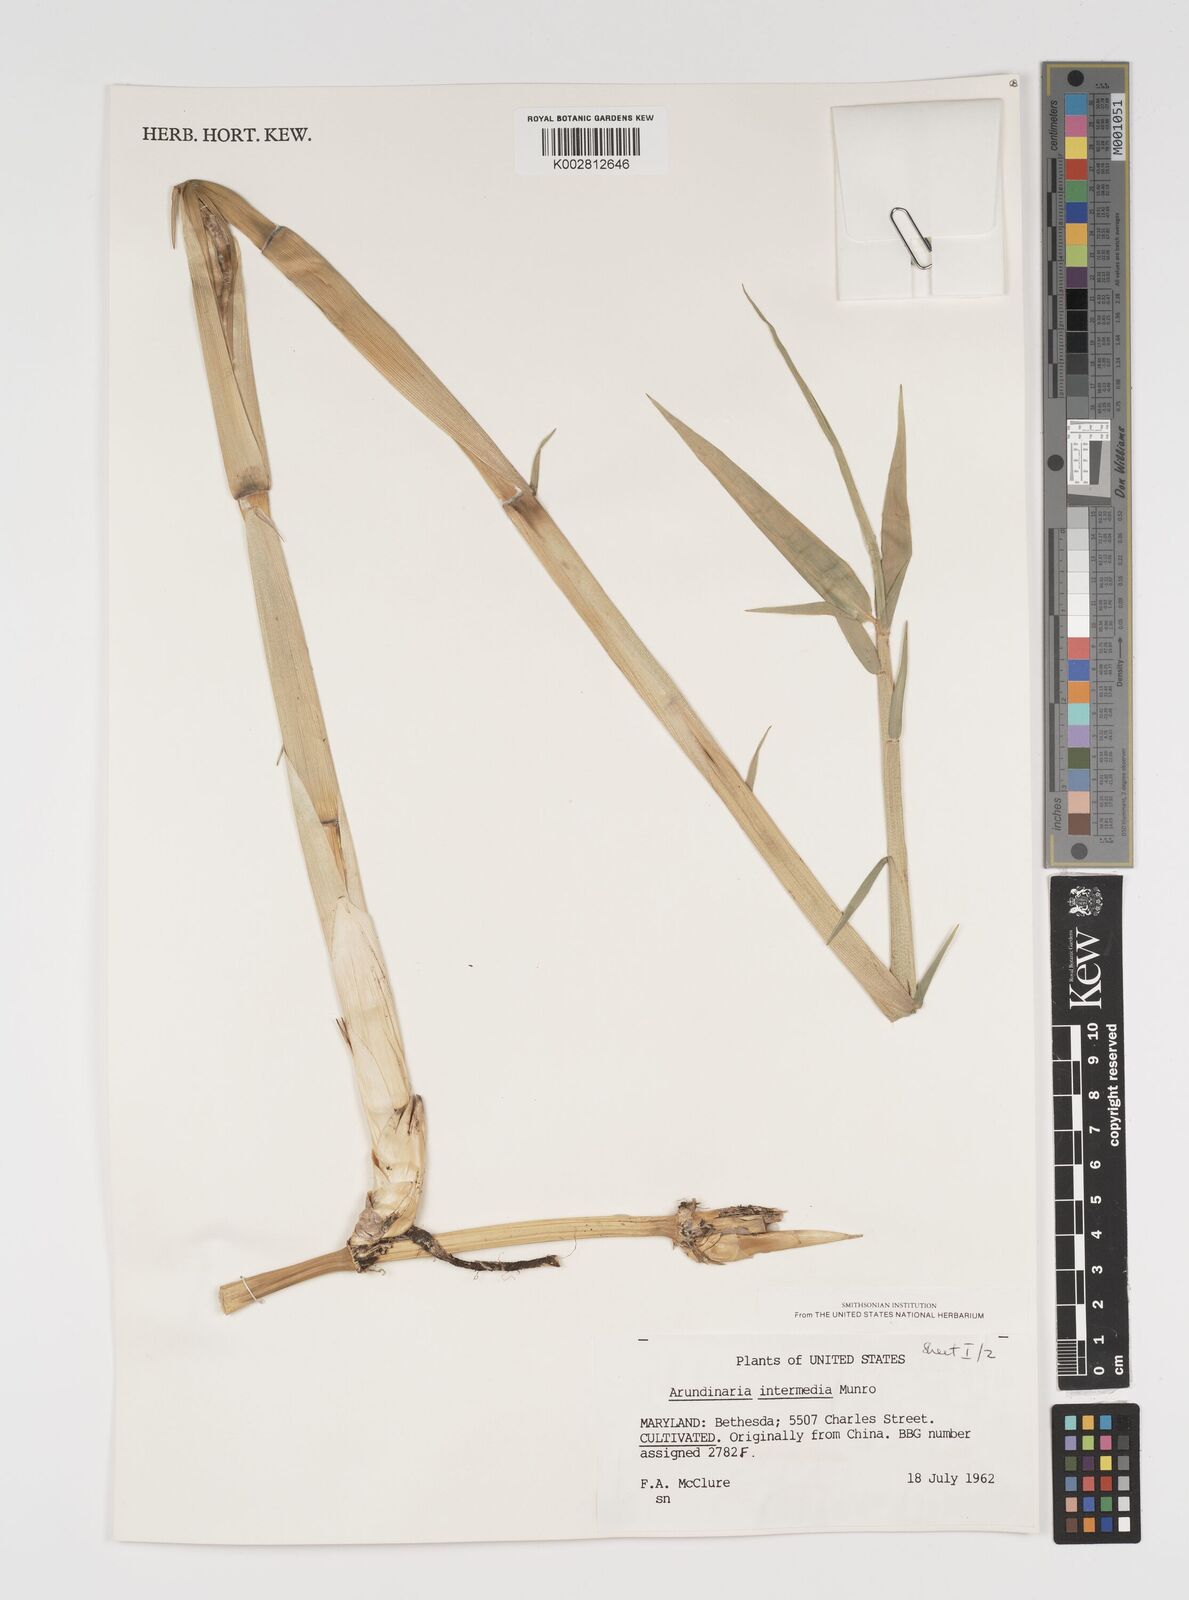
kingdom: Plantae
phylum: Tracheophyta
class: Liliopsida
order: Poales
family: Poaceae
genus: Arundinaria
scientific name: Arundinaria
